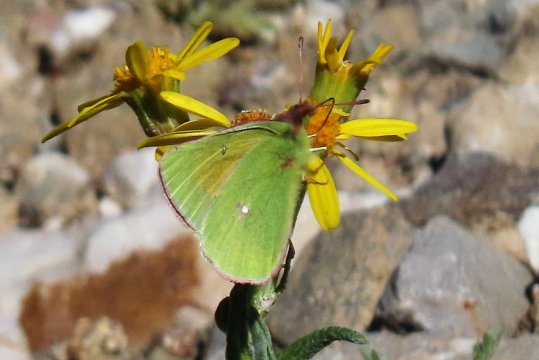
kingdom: Animalia
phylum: Arthropoda
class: Insecta
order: Lepidoptera
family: Pieridae
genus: Colias
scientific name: Colias meadii
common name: Mead's Sulphur
